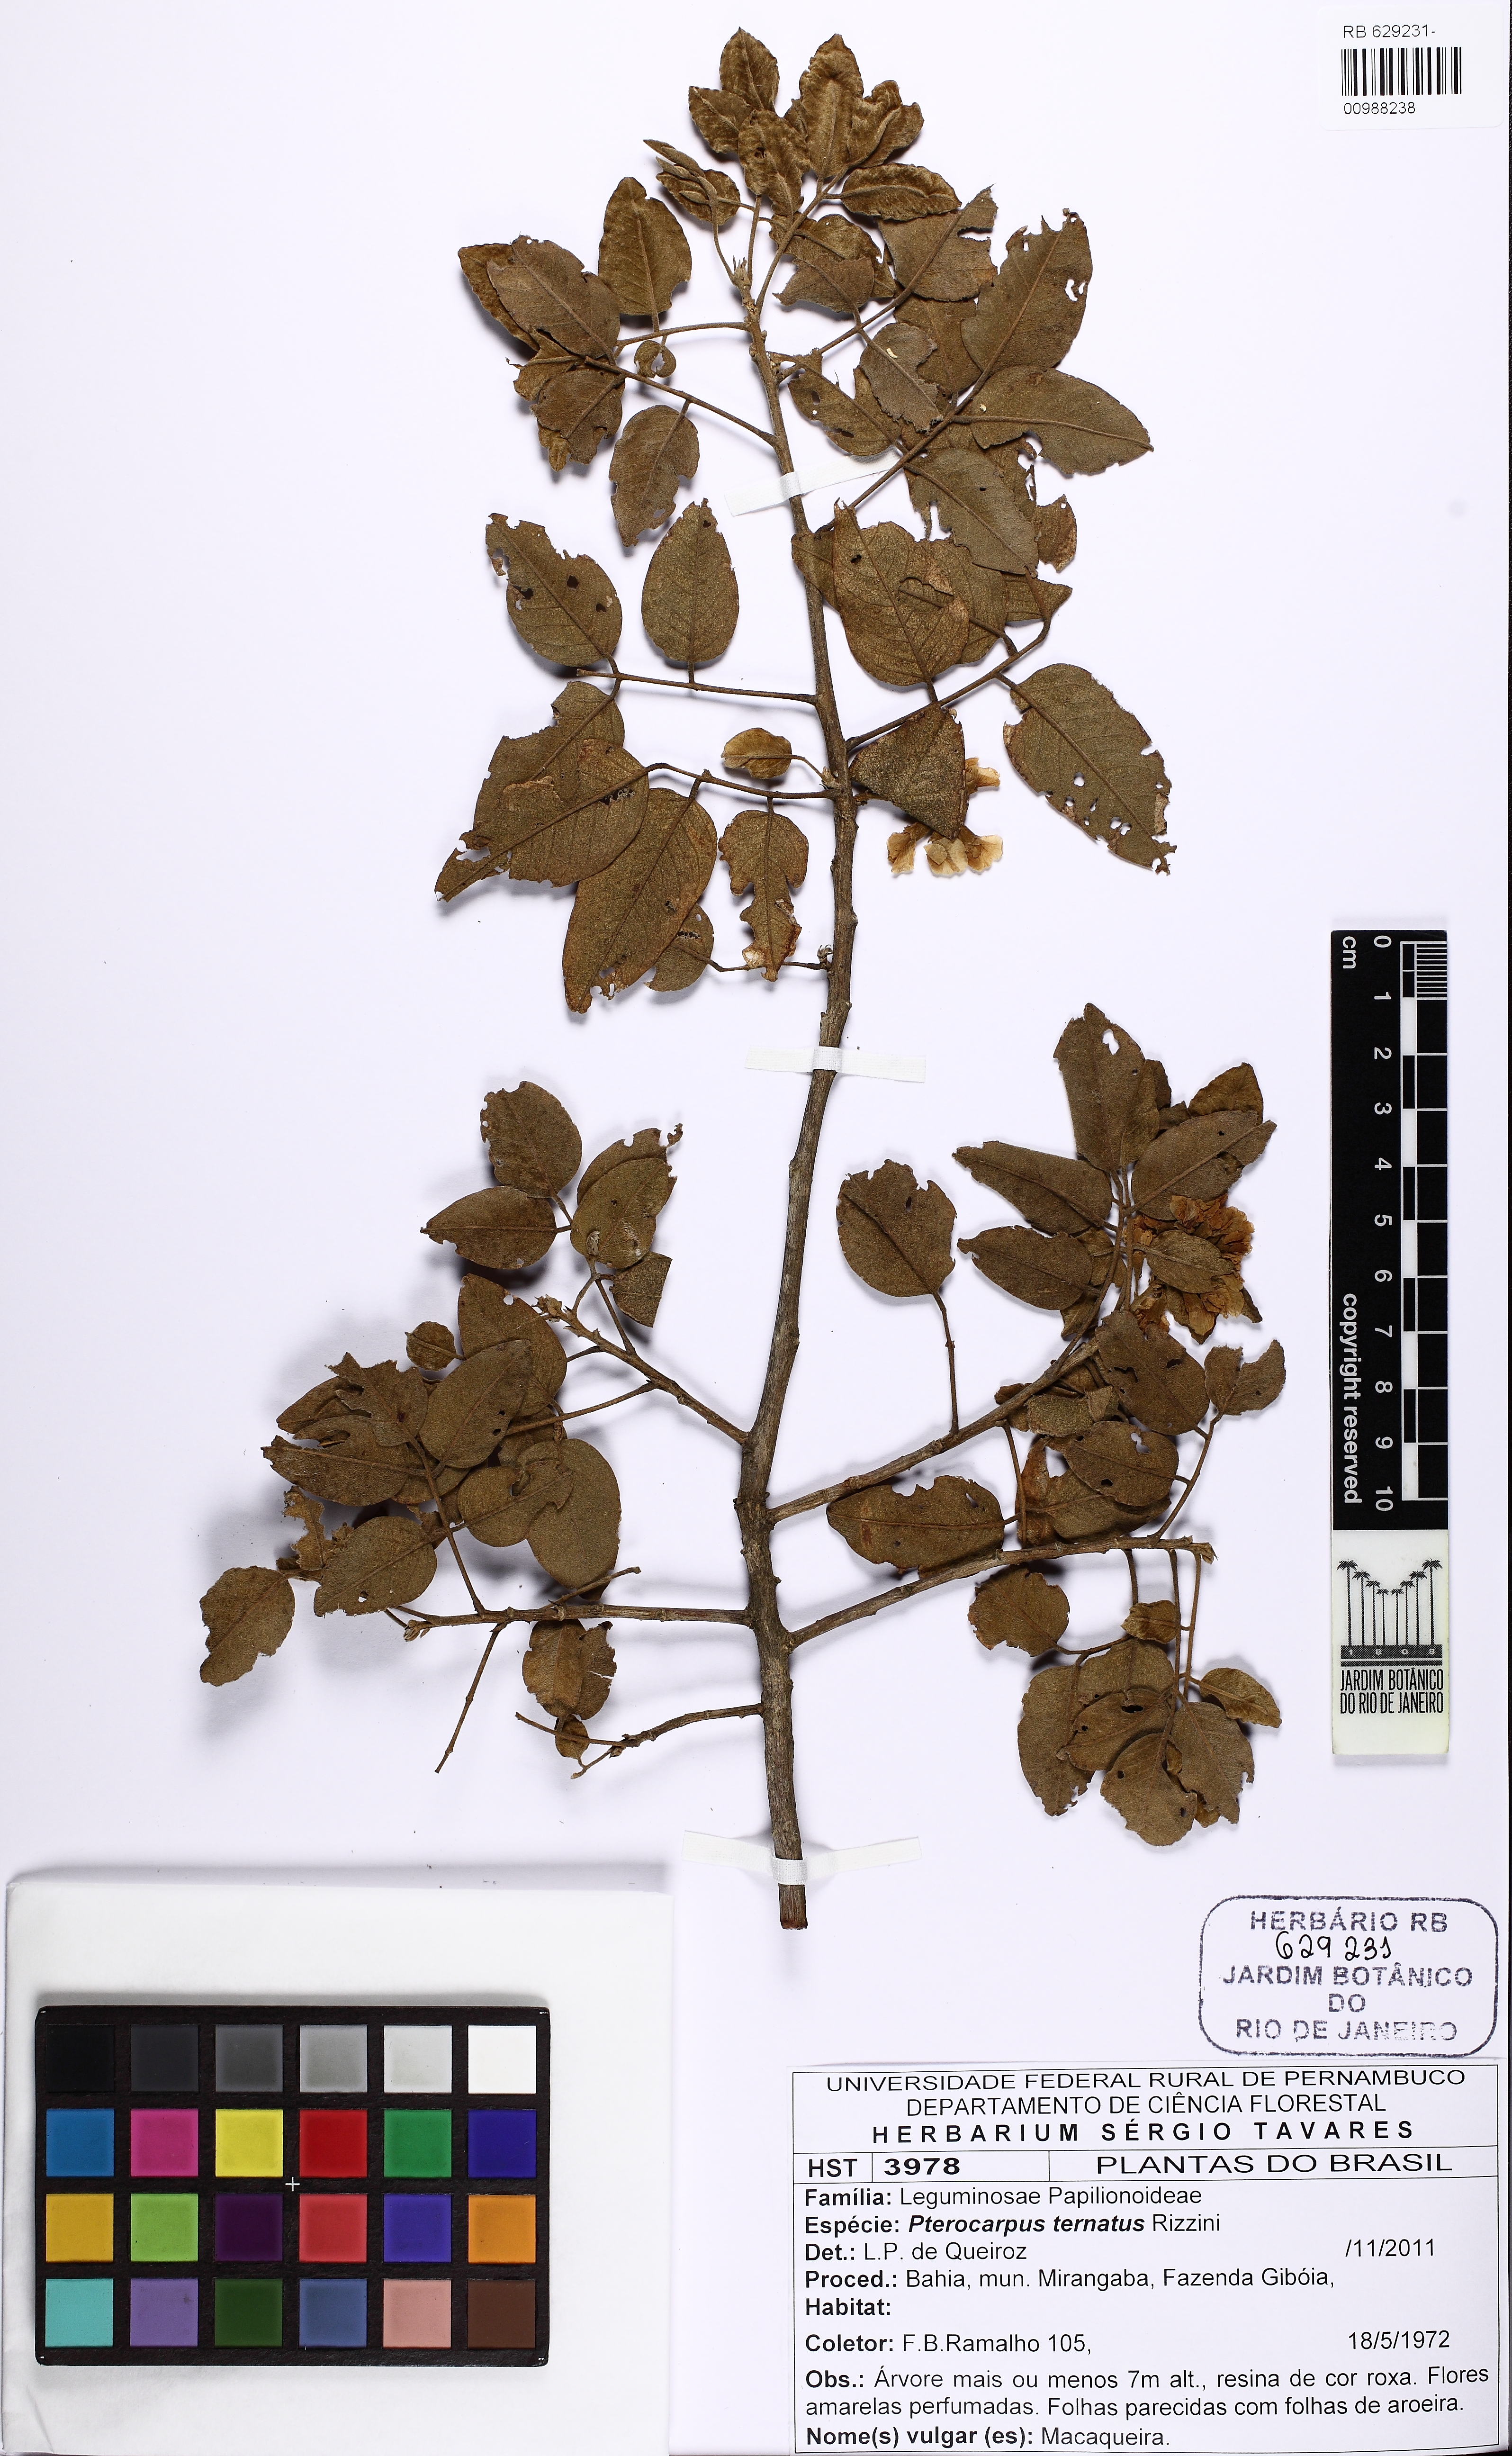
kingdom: Plantae
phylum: Tracheophyta
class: Magnoliopsida
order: Fabales
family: Fabaceae
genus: Pterocarpus
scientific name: Pterocarpus ternatus
